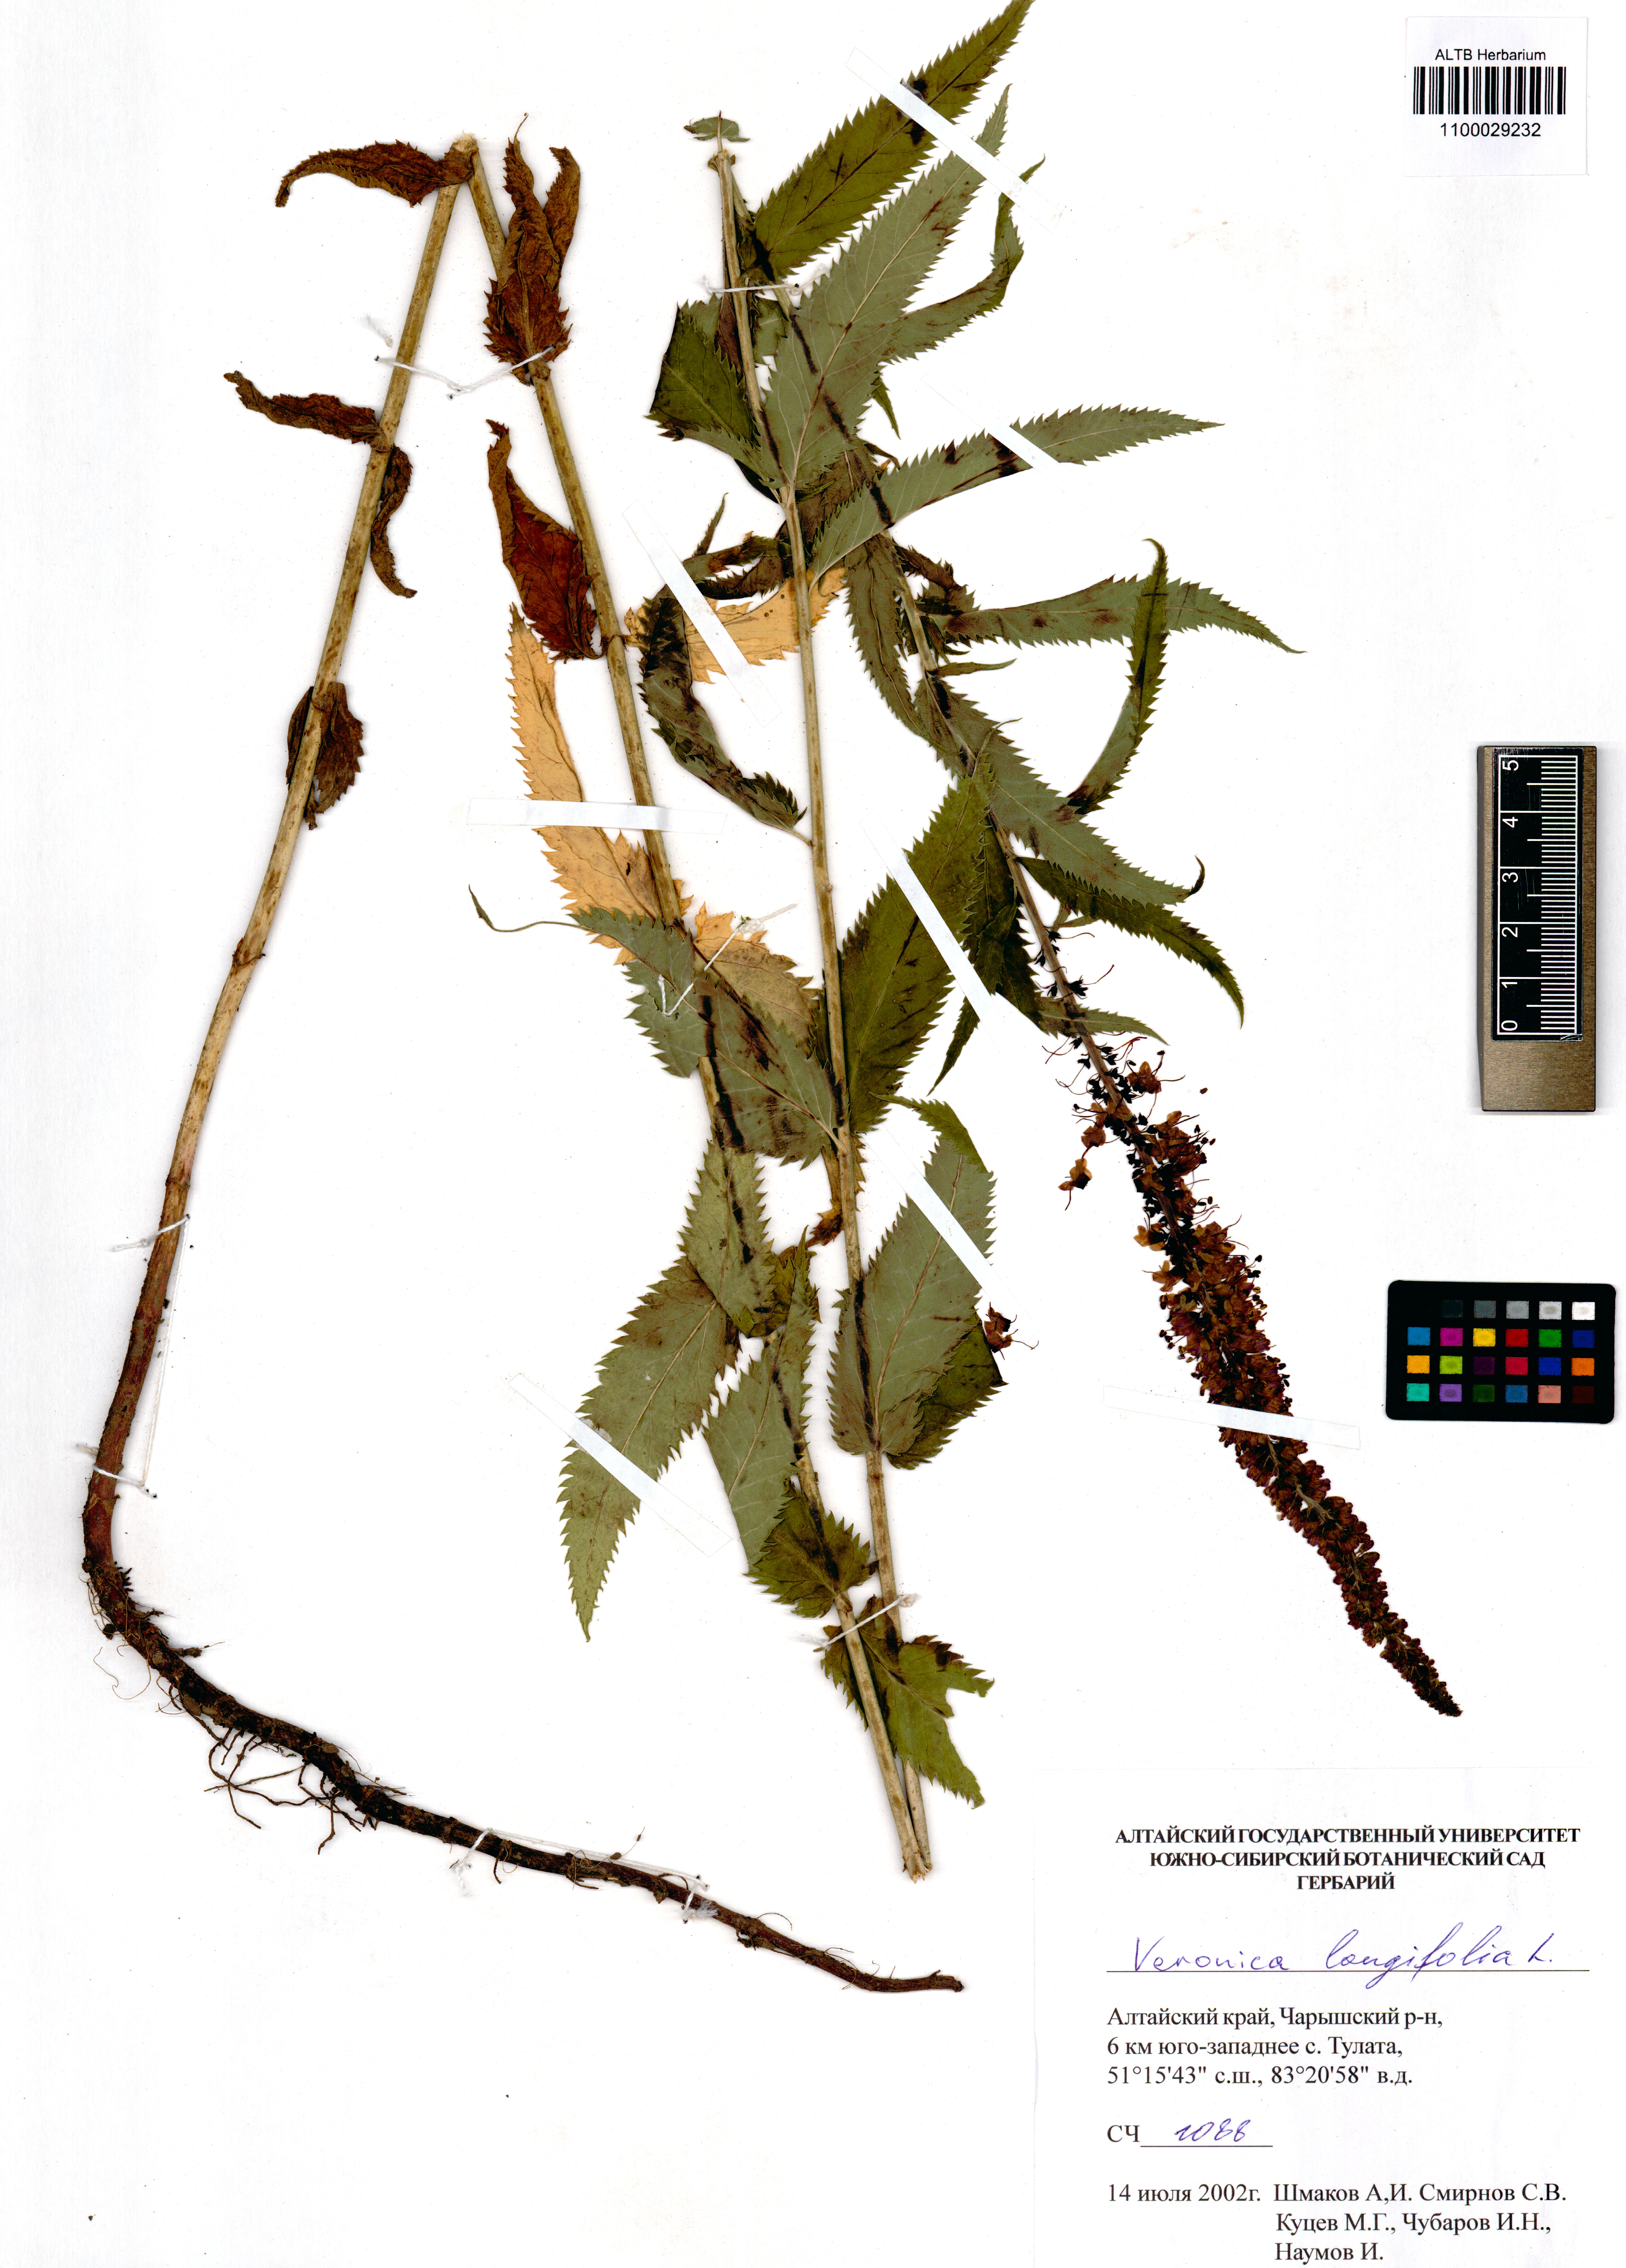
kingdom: Plantae
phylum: Tracheophyta
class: Magnoliopsida
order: Lamiales
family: Plantaginaceae
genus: Veronica
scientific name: Veronica longifolia
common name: Garden speedwell
